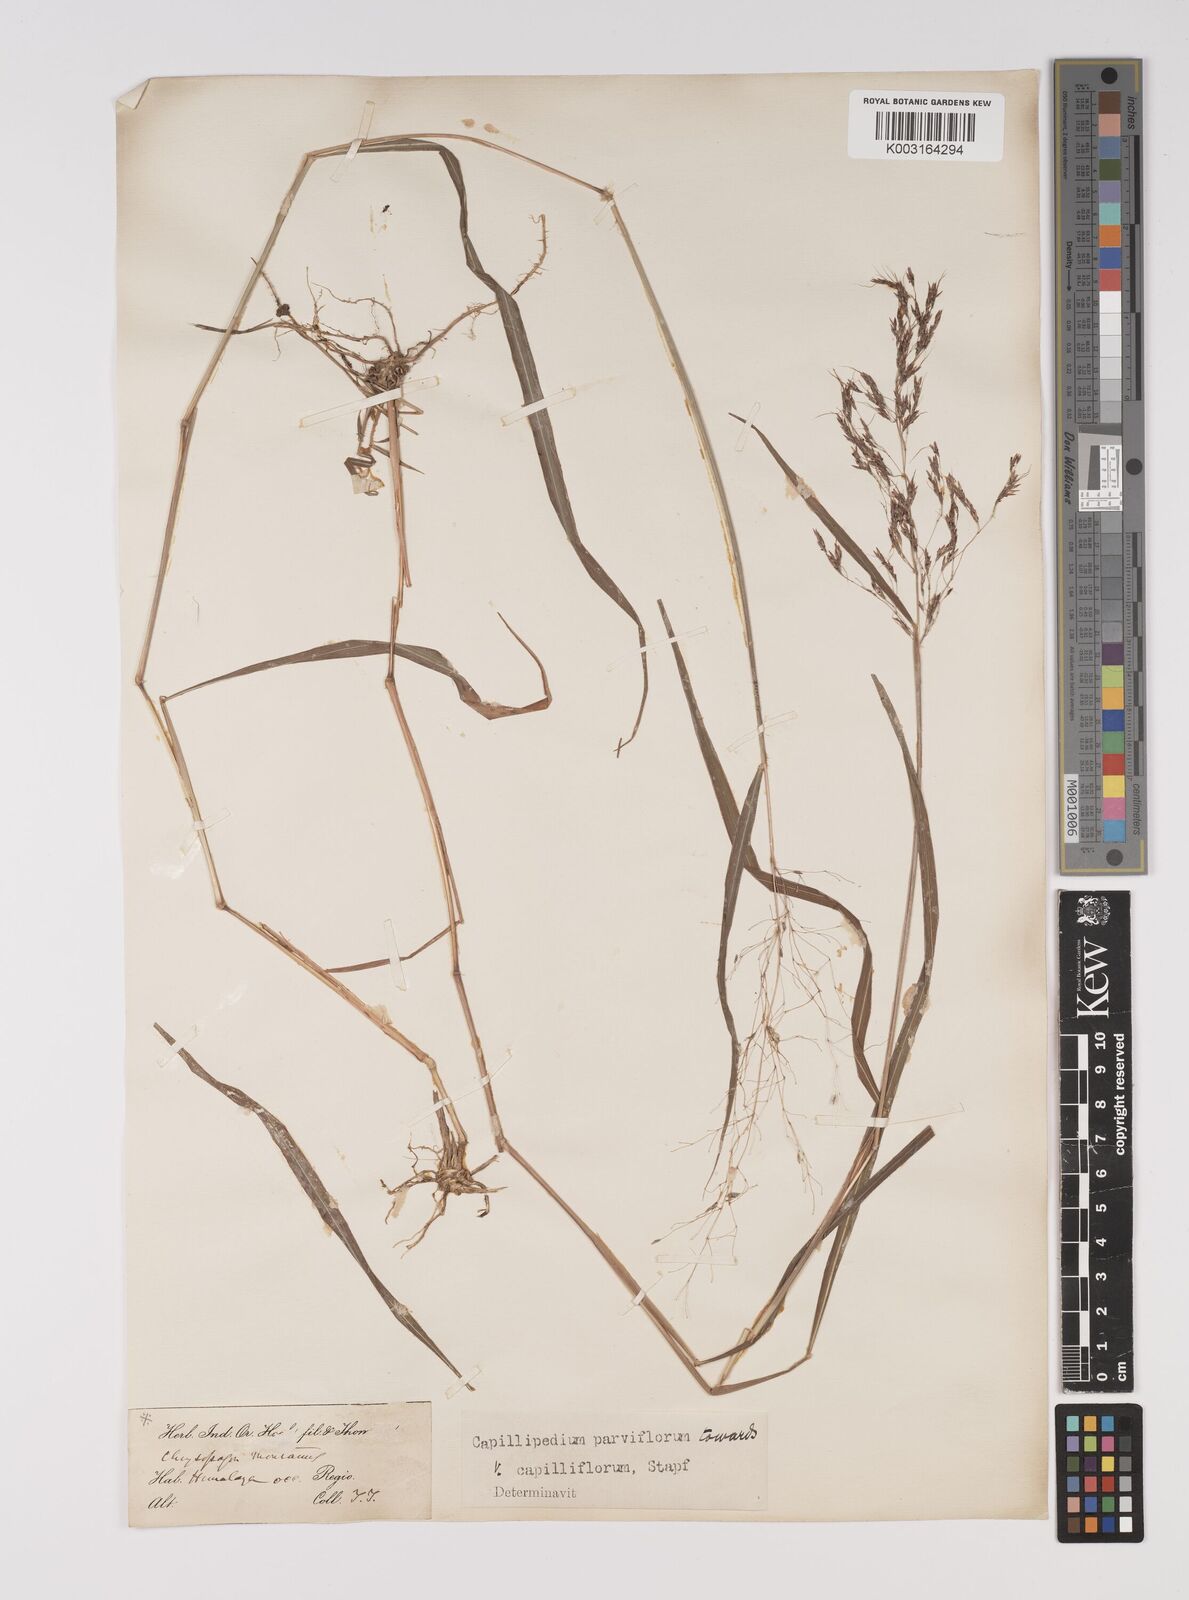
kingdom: Plantae
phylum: Tracheophyta
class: Liliopsida
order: Poales
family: Poaceae
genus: Capillipedium
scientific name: Capillipedium parviflorum
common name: Golden-beard
